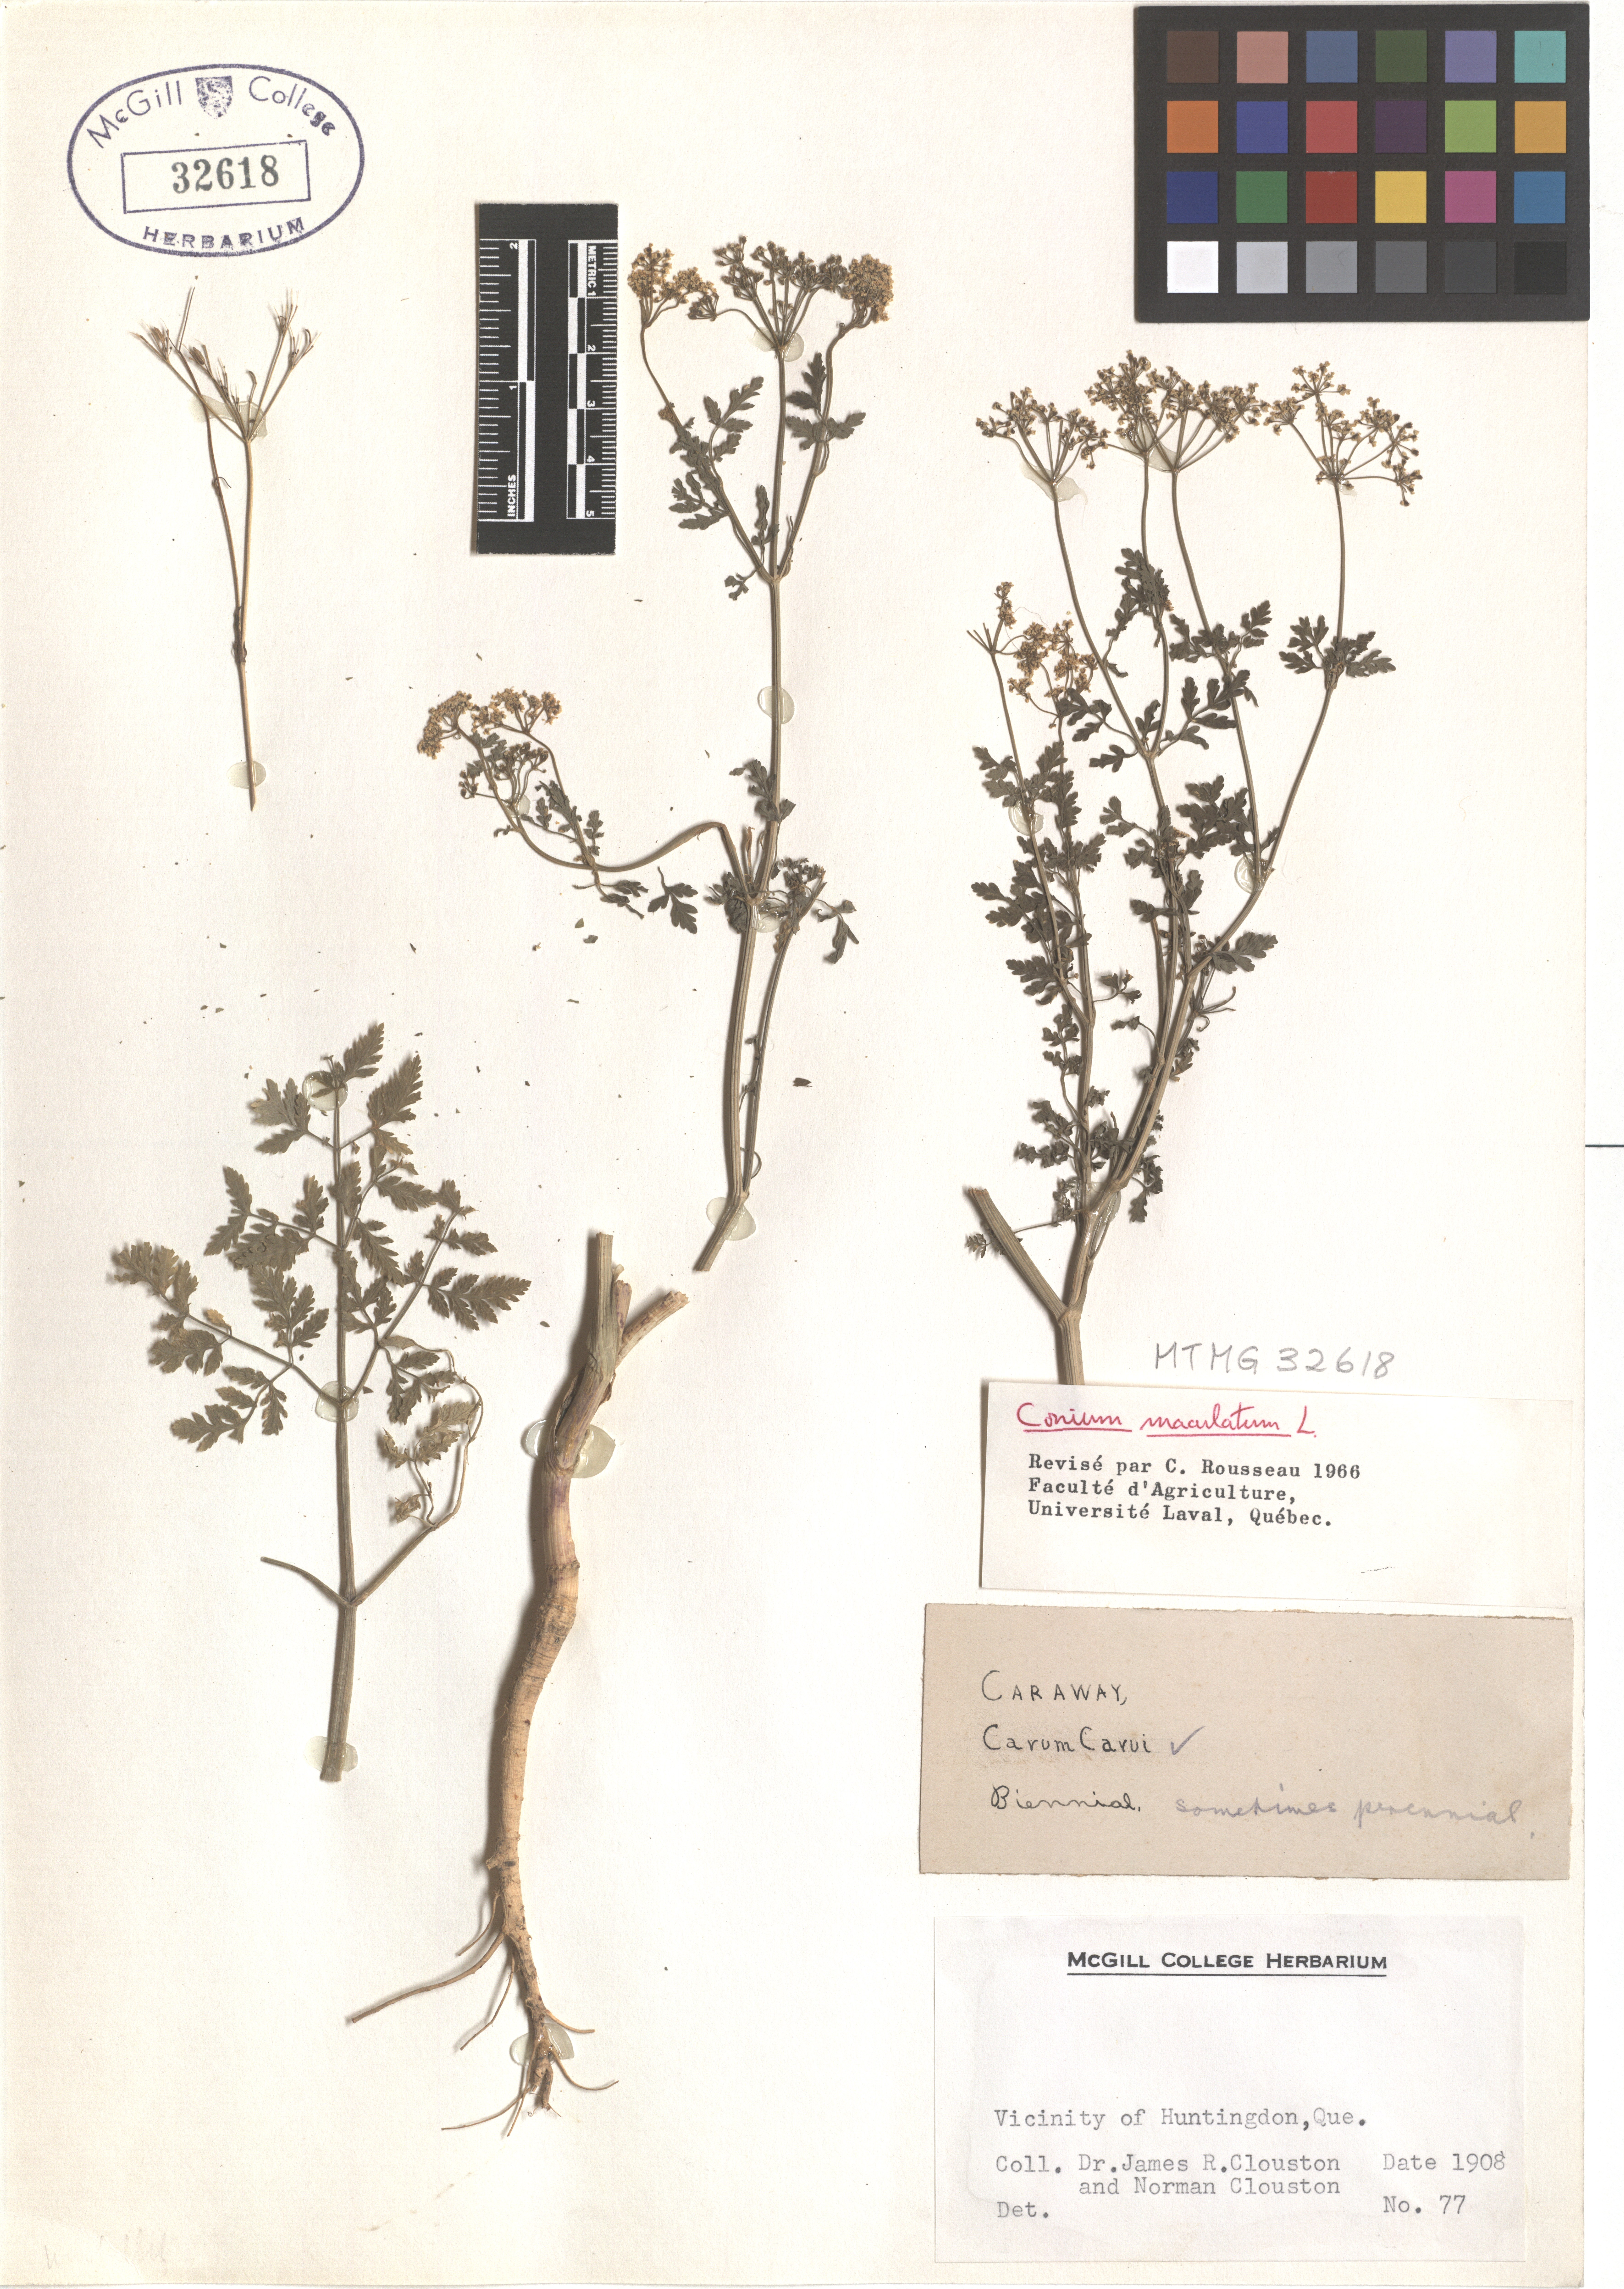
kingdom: Plantae
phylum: Tracheophyta
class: Magnoliopsida
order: Apiales
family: Apiaceae
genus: Conium
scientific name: Conium maculatum
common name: Hemlock
